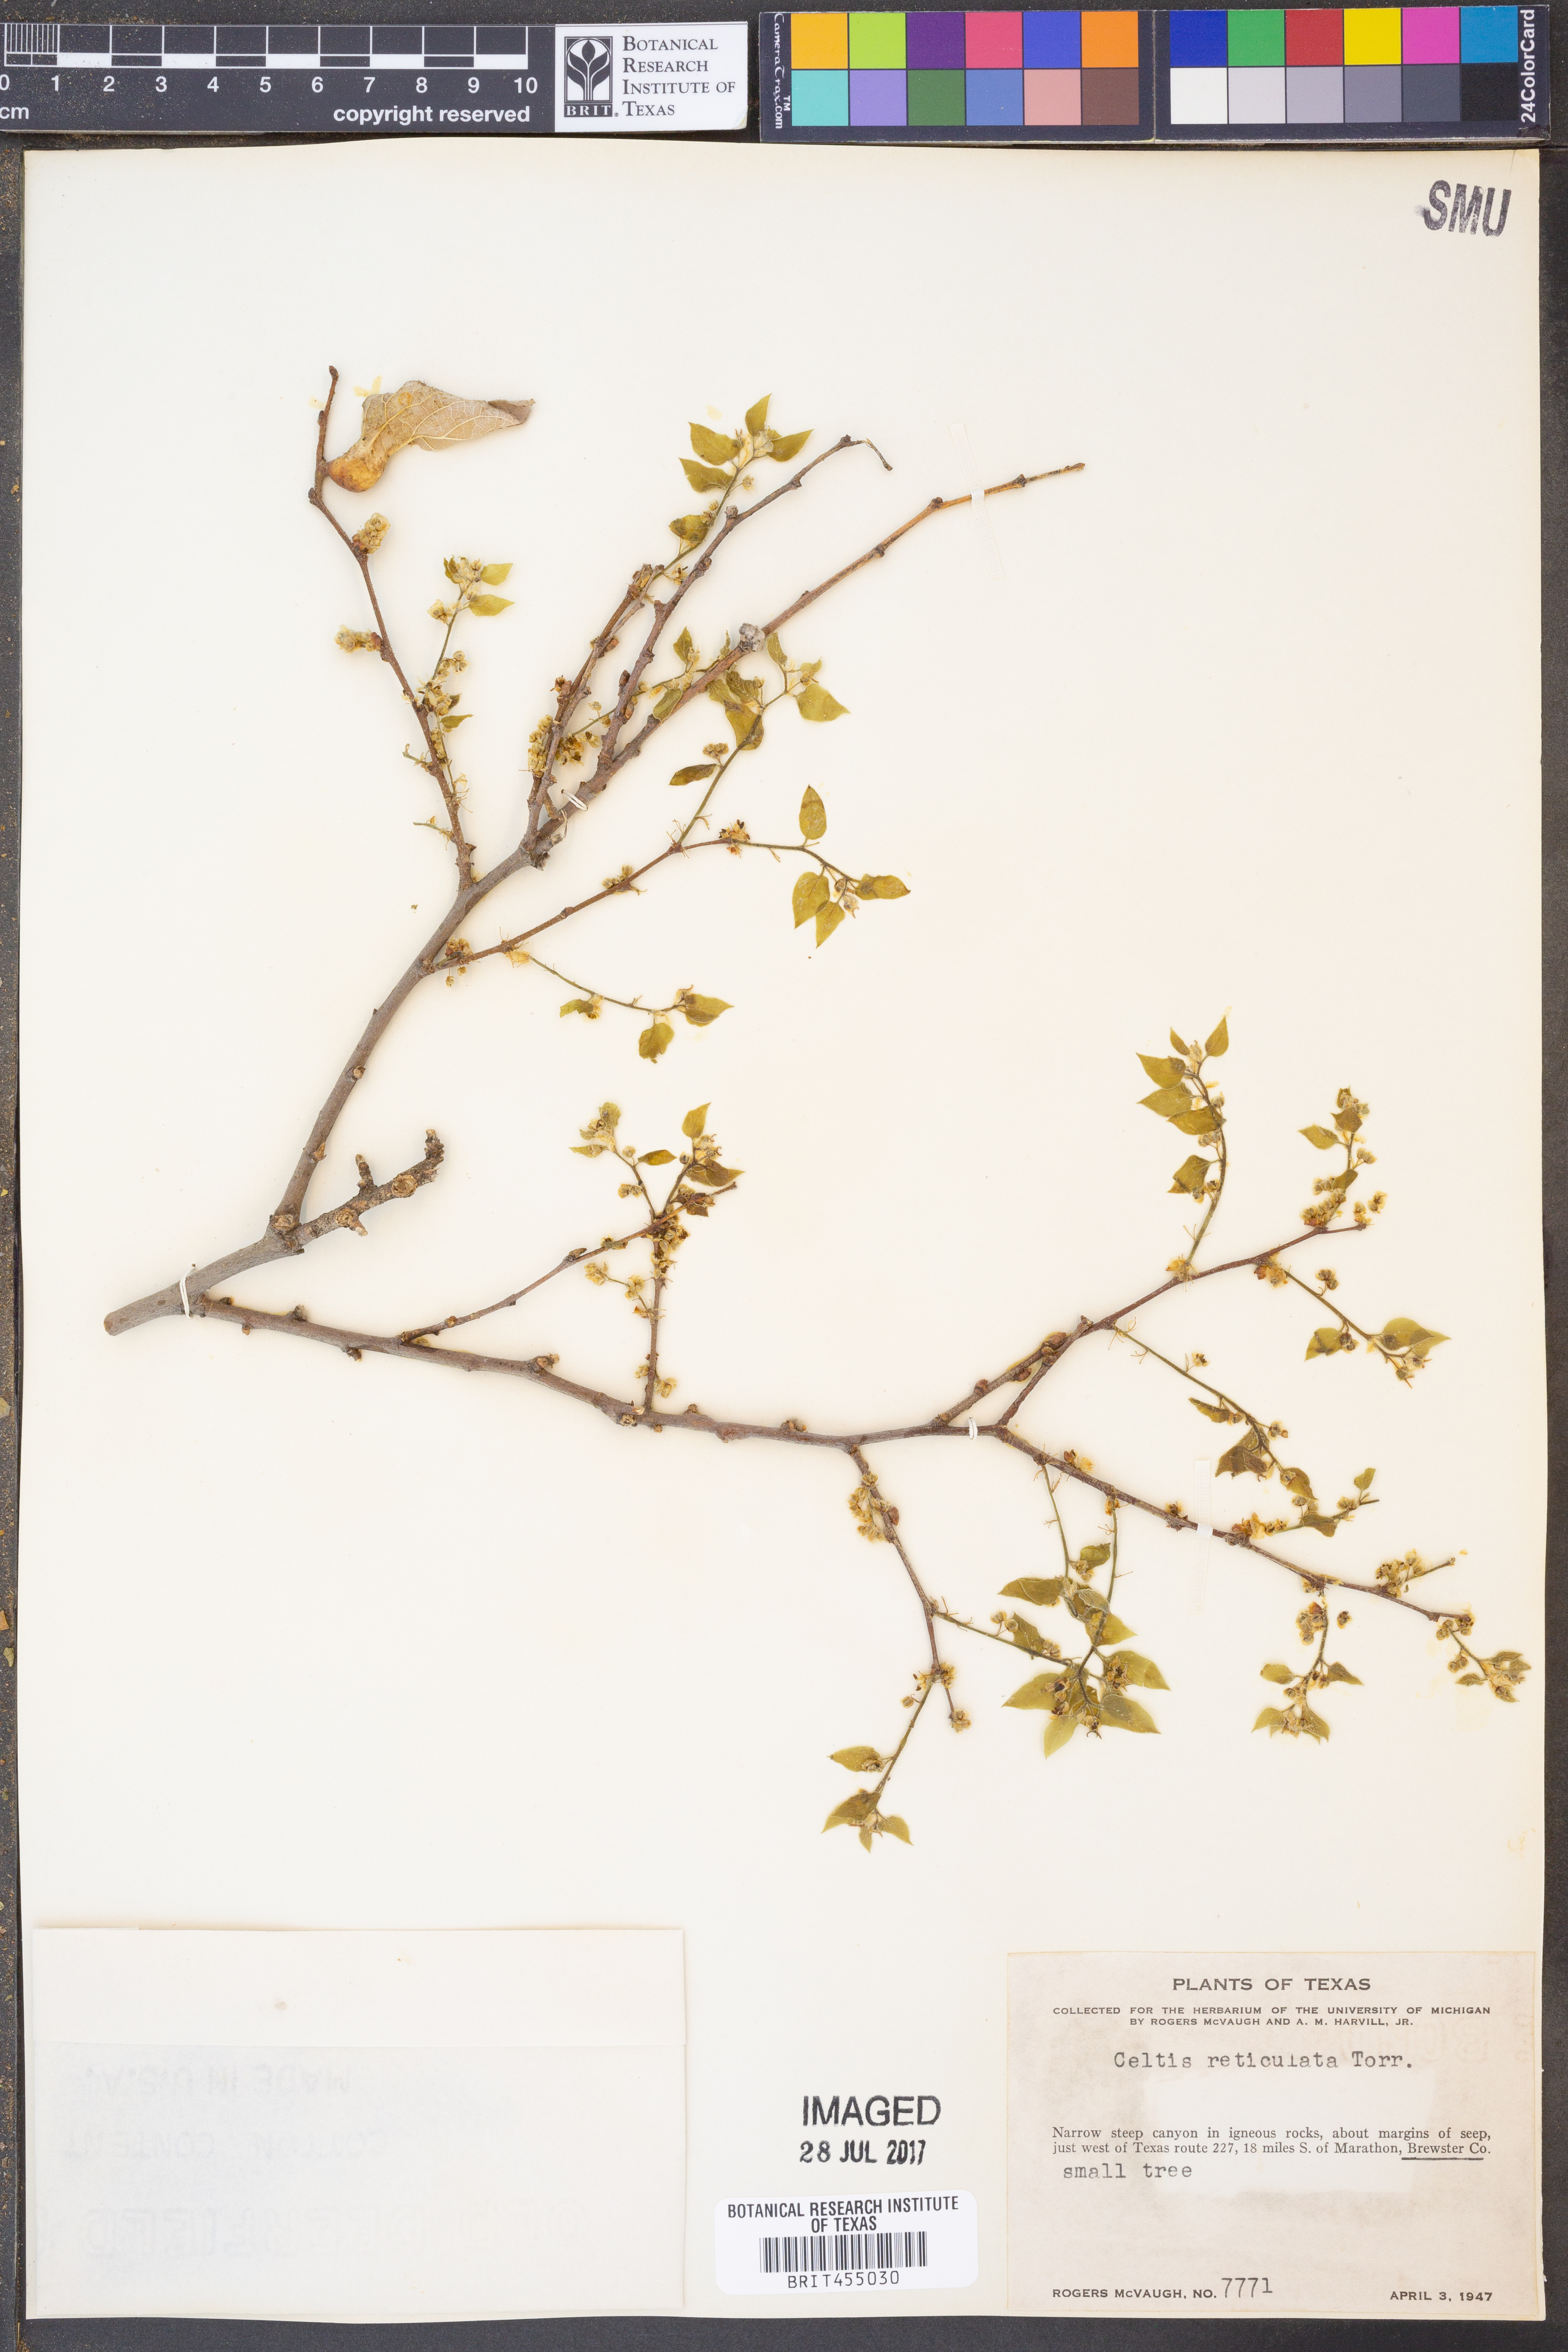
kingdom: Plantae
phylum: Tracheophyta
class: Magnoliopsida
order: Rosales
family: Cannabaceae
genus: Celtis
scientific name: Celtis reticulata
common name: Netleaf hackberry
